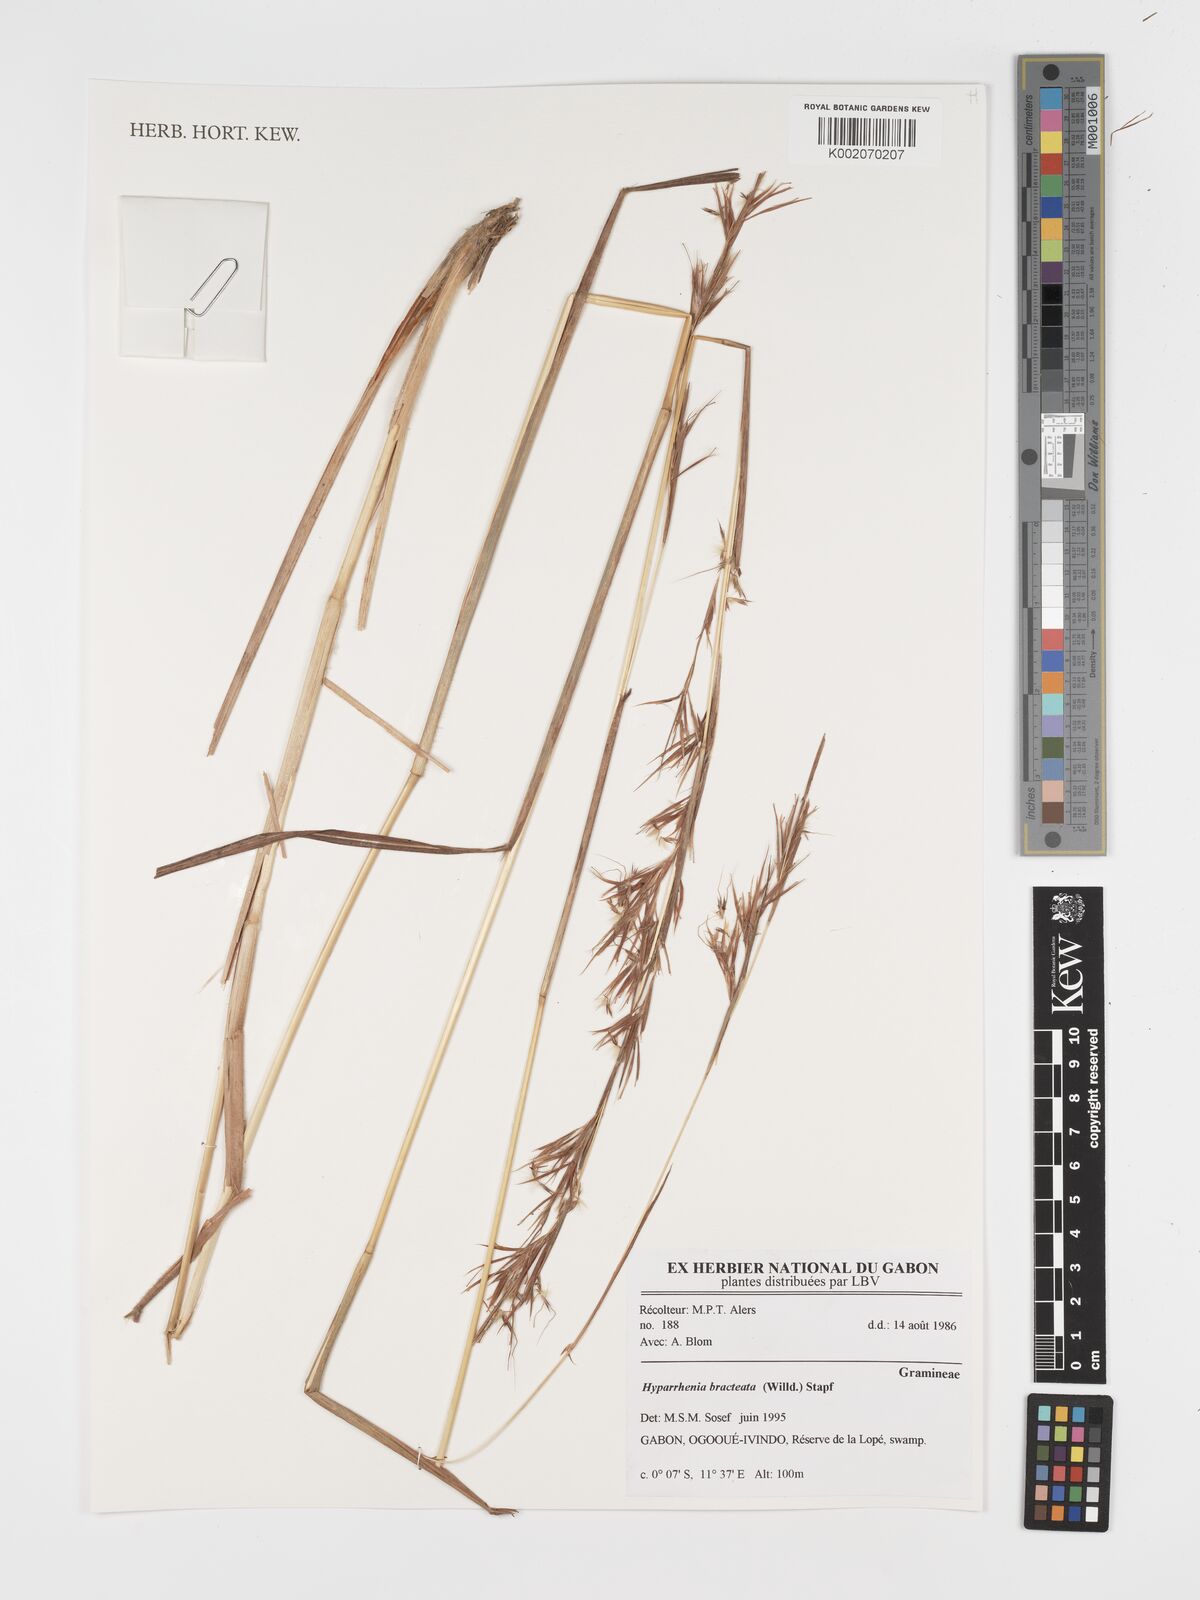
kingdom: Plantae
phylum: Tracheophyta
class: Liliopsida
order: Poales
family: Poaceae
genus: Hyparrhenia
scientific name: Hyparrhenia bracteata
